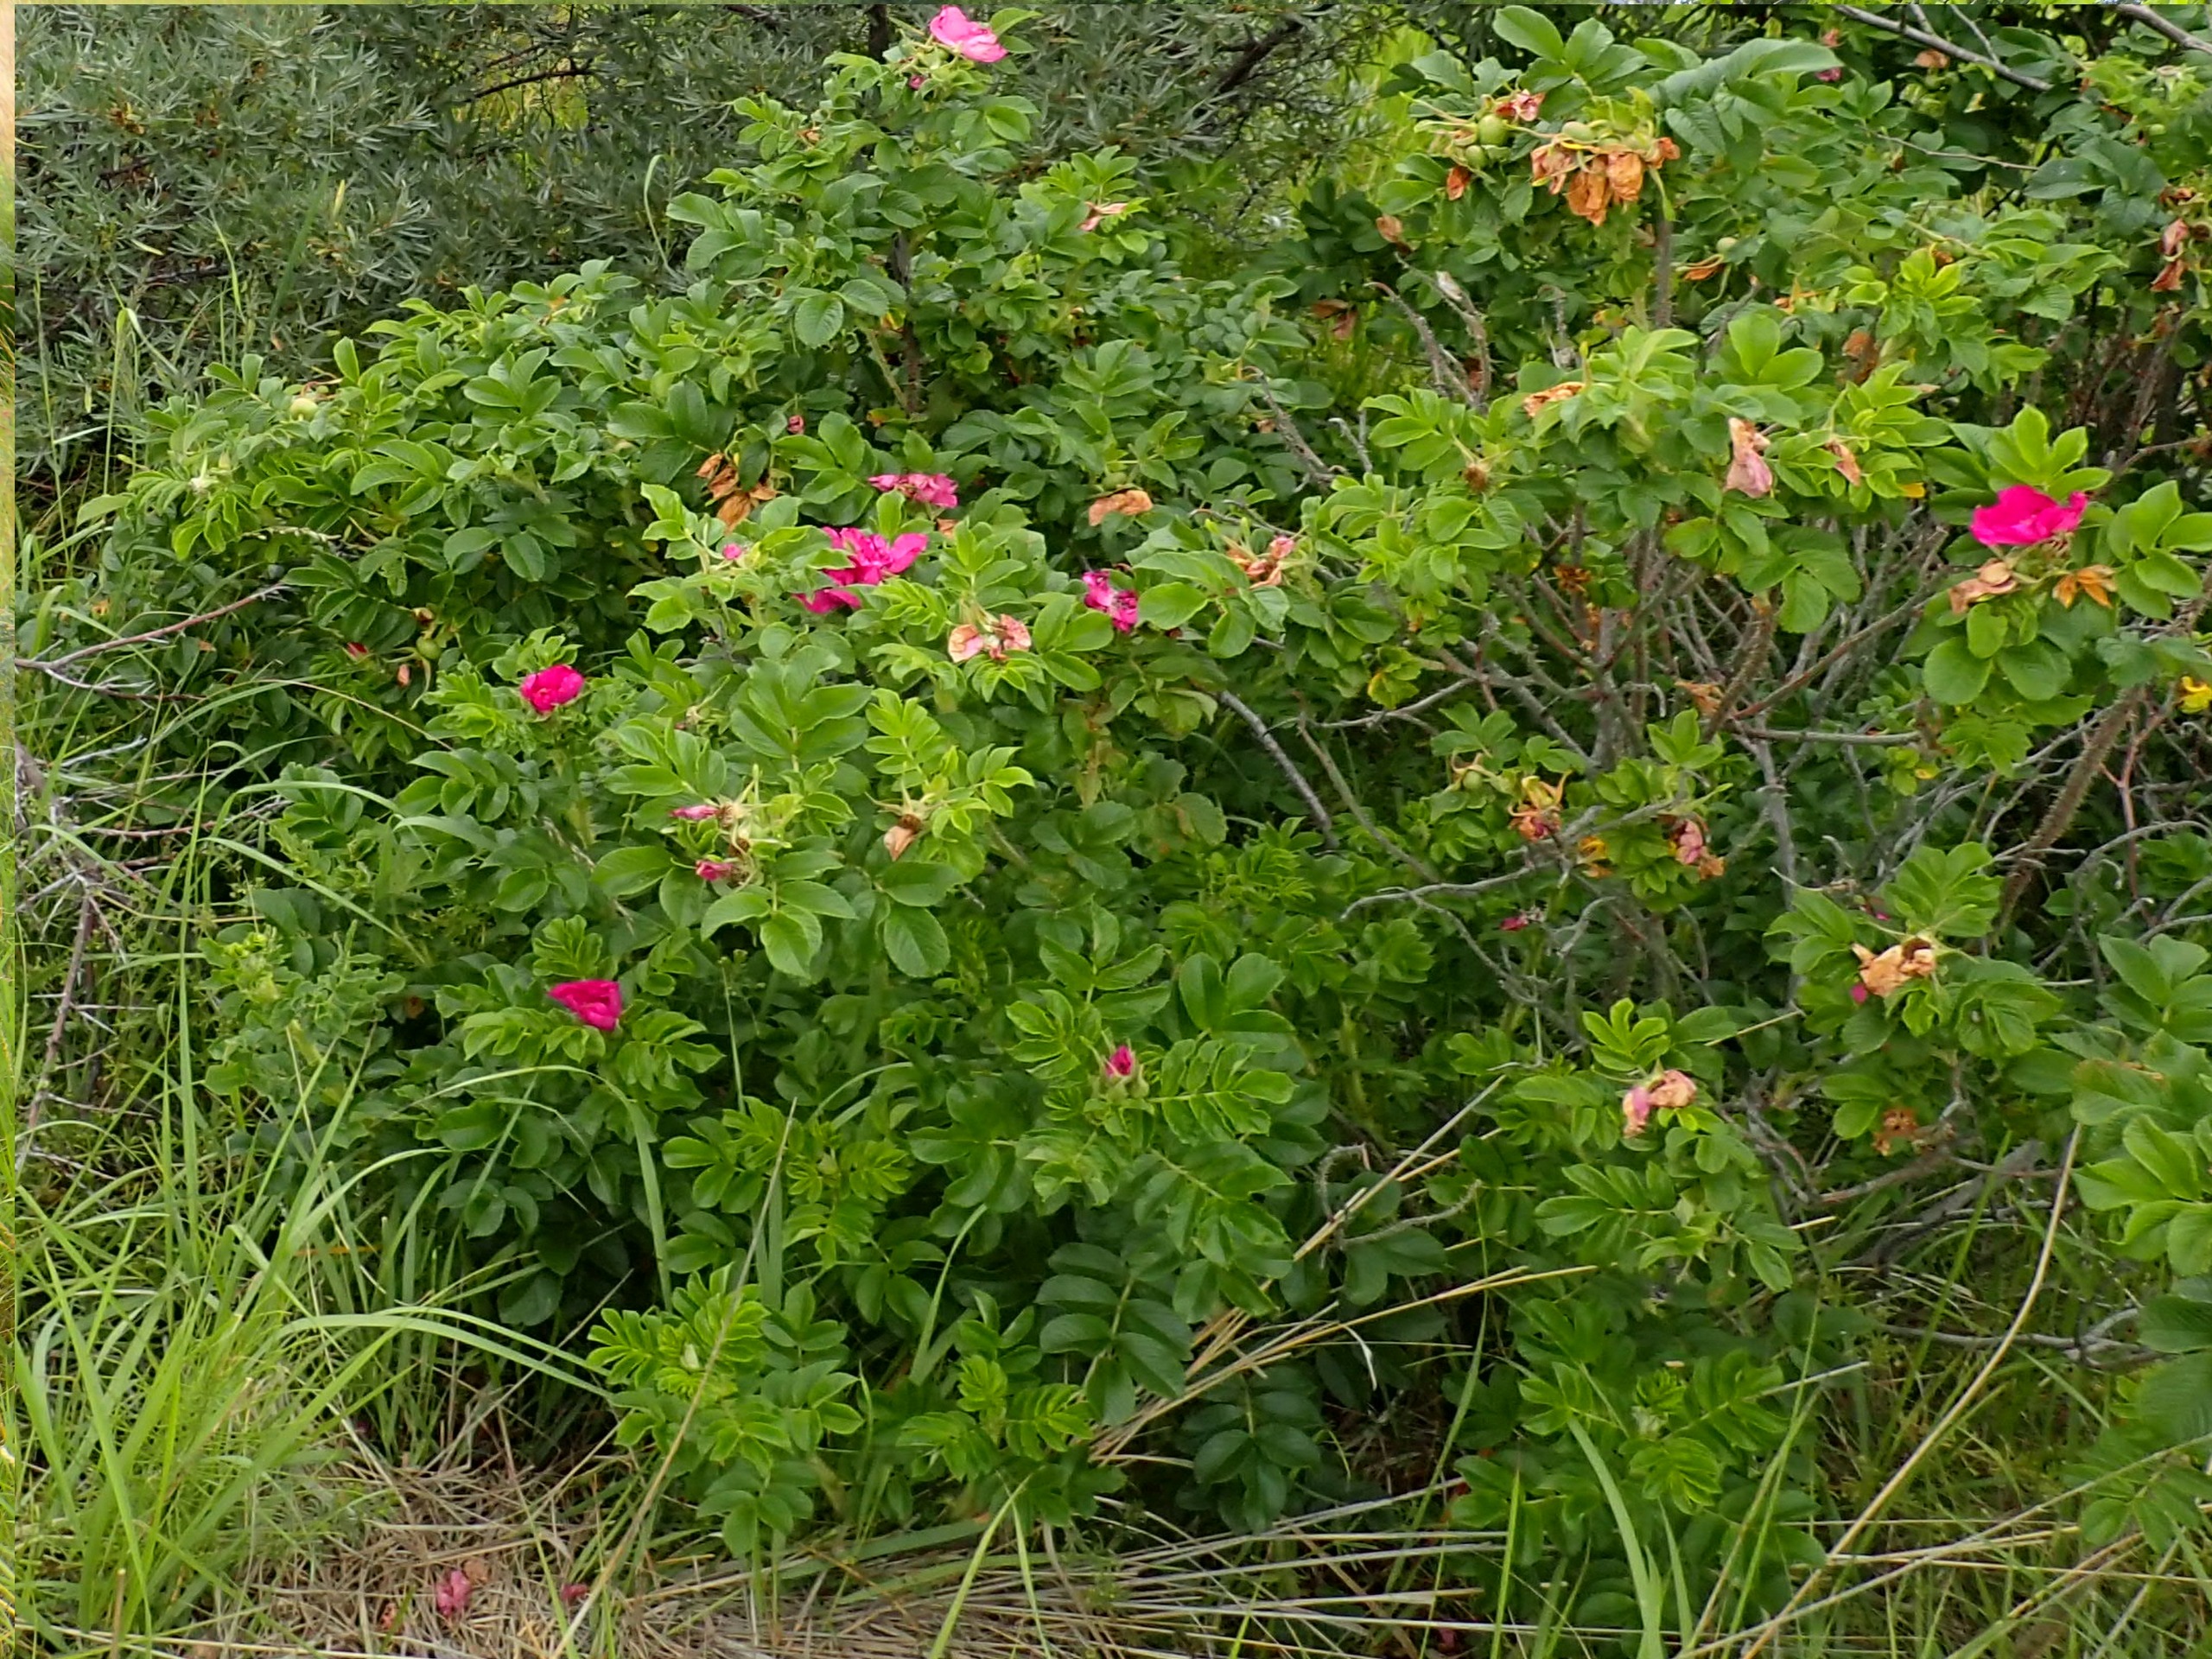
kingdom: Plantae
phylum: Tracheophyta
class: Magnoliopsida
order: Rosales
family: Rosaceae
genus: Rosa
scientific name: Rosa rugosa
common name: Rynket rose
